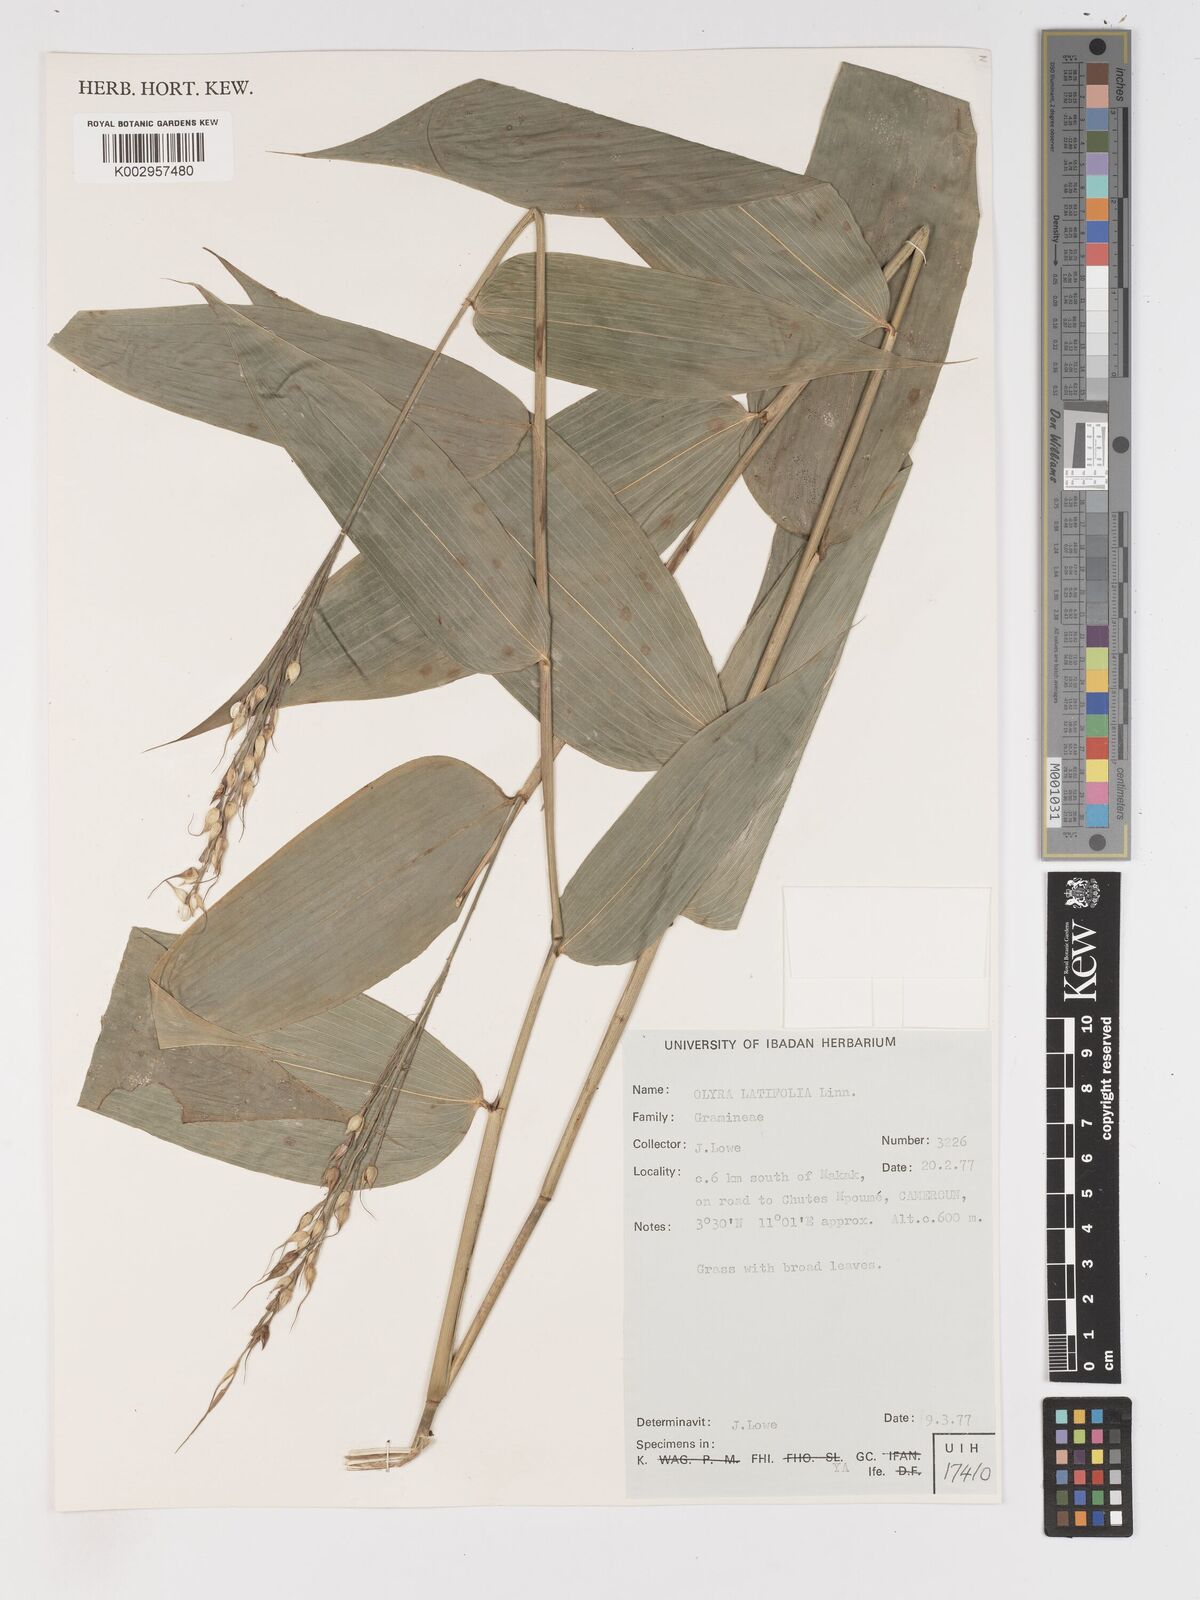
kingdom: Plantae
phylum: Tracheophyta
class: Liliopsida
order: Poales
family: Poaceae
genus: Olyra
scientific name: Olyra latifolia
